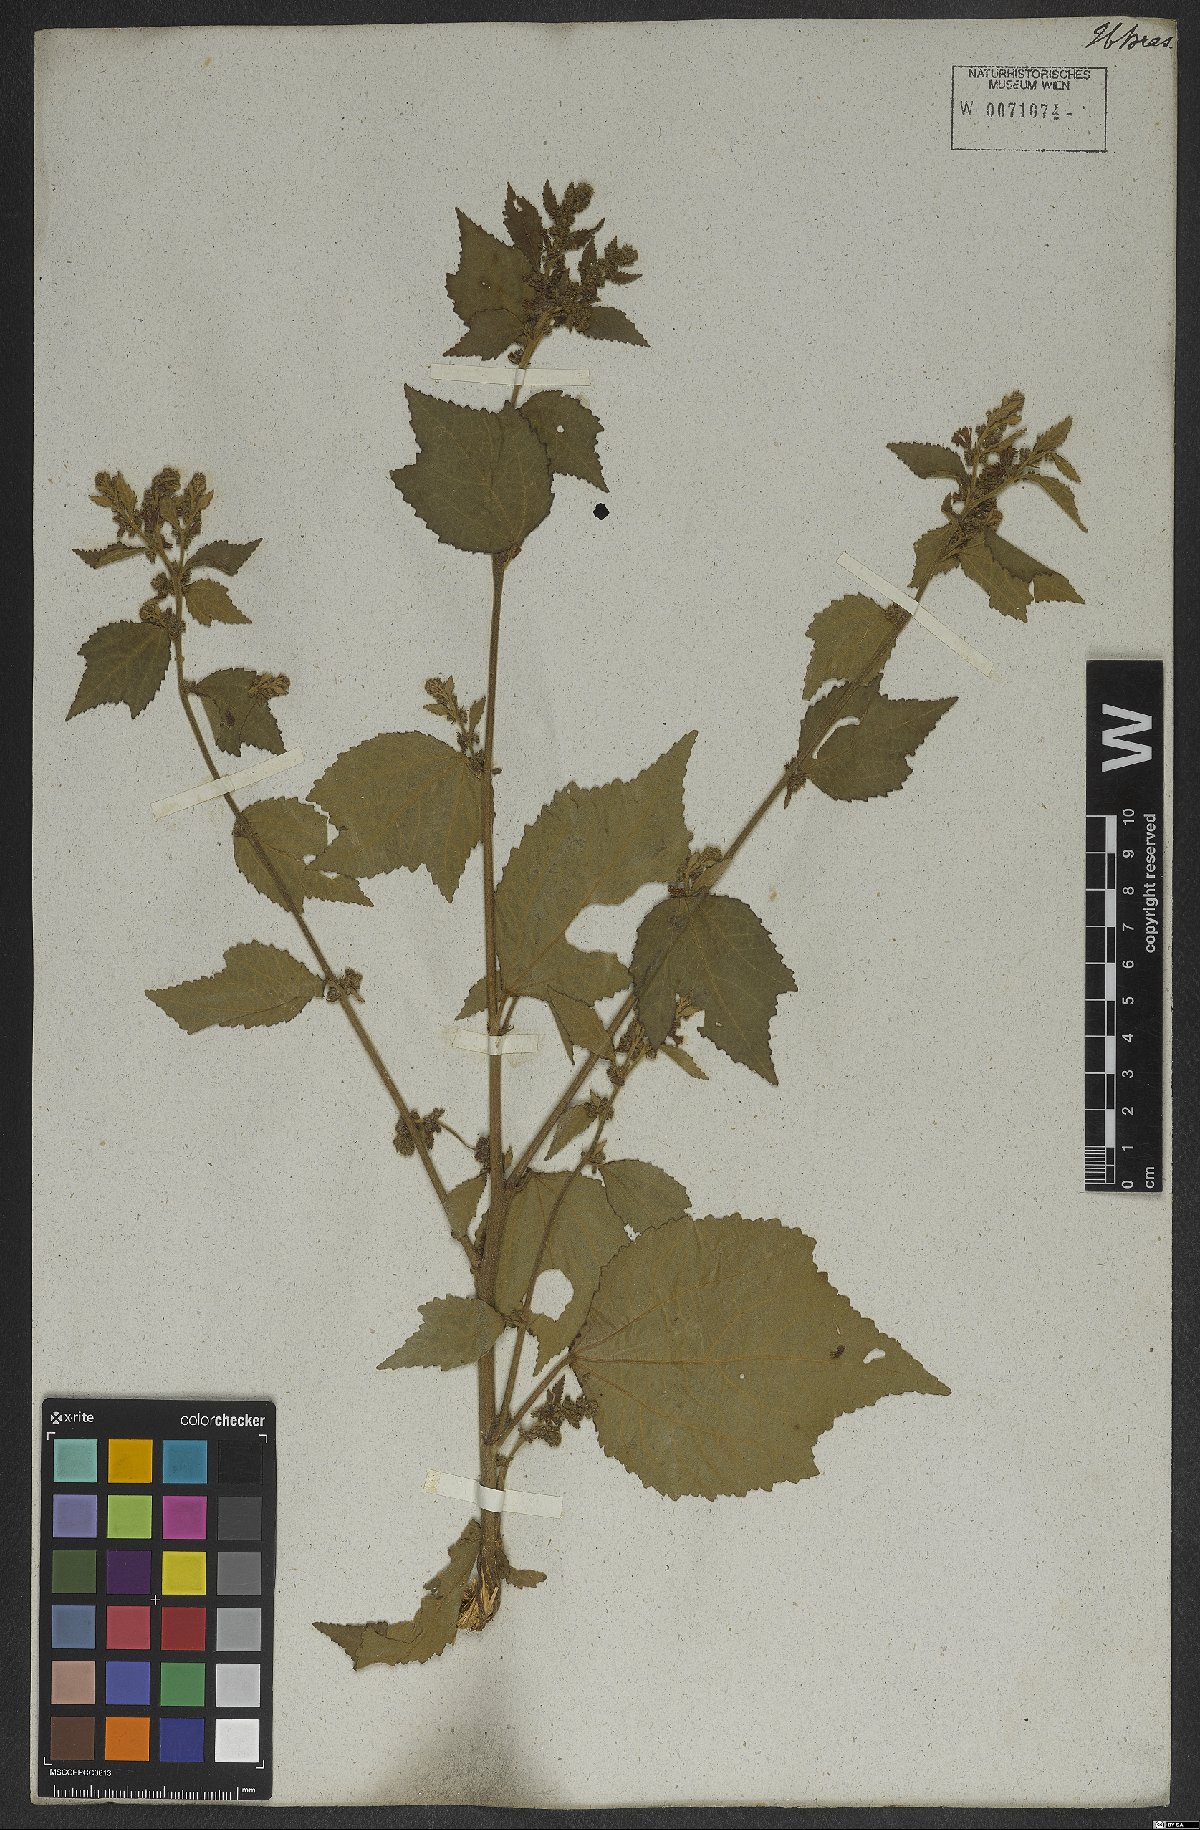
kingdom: Plantae
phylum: Tracheophyta
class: Magnoliopsida
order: Malvales
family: Malvaceae
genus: Triumfetta
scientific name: Triumfetta althaeoides
